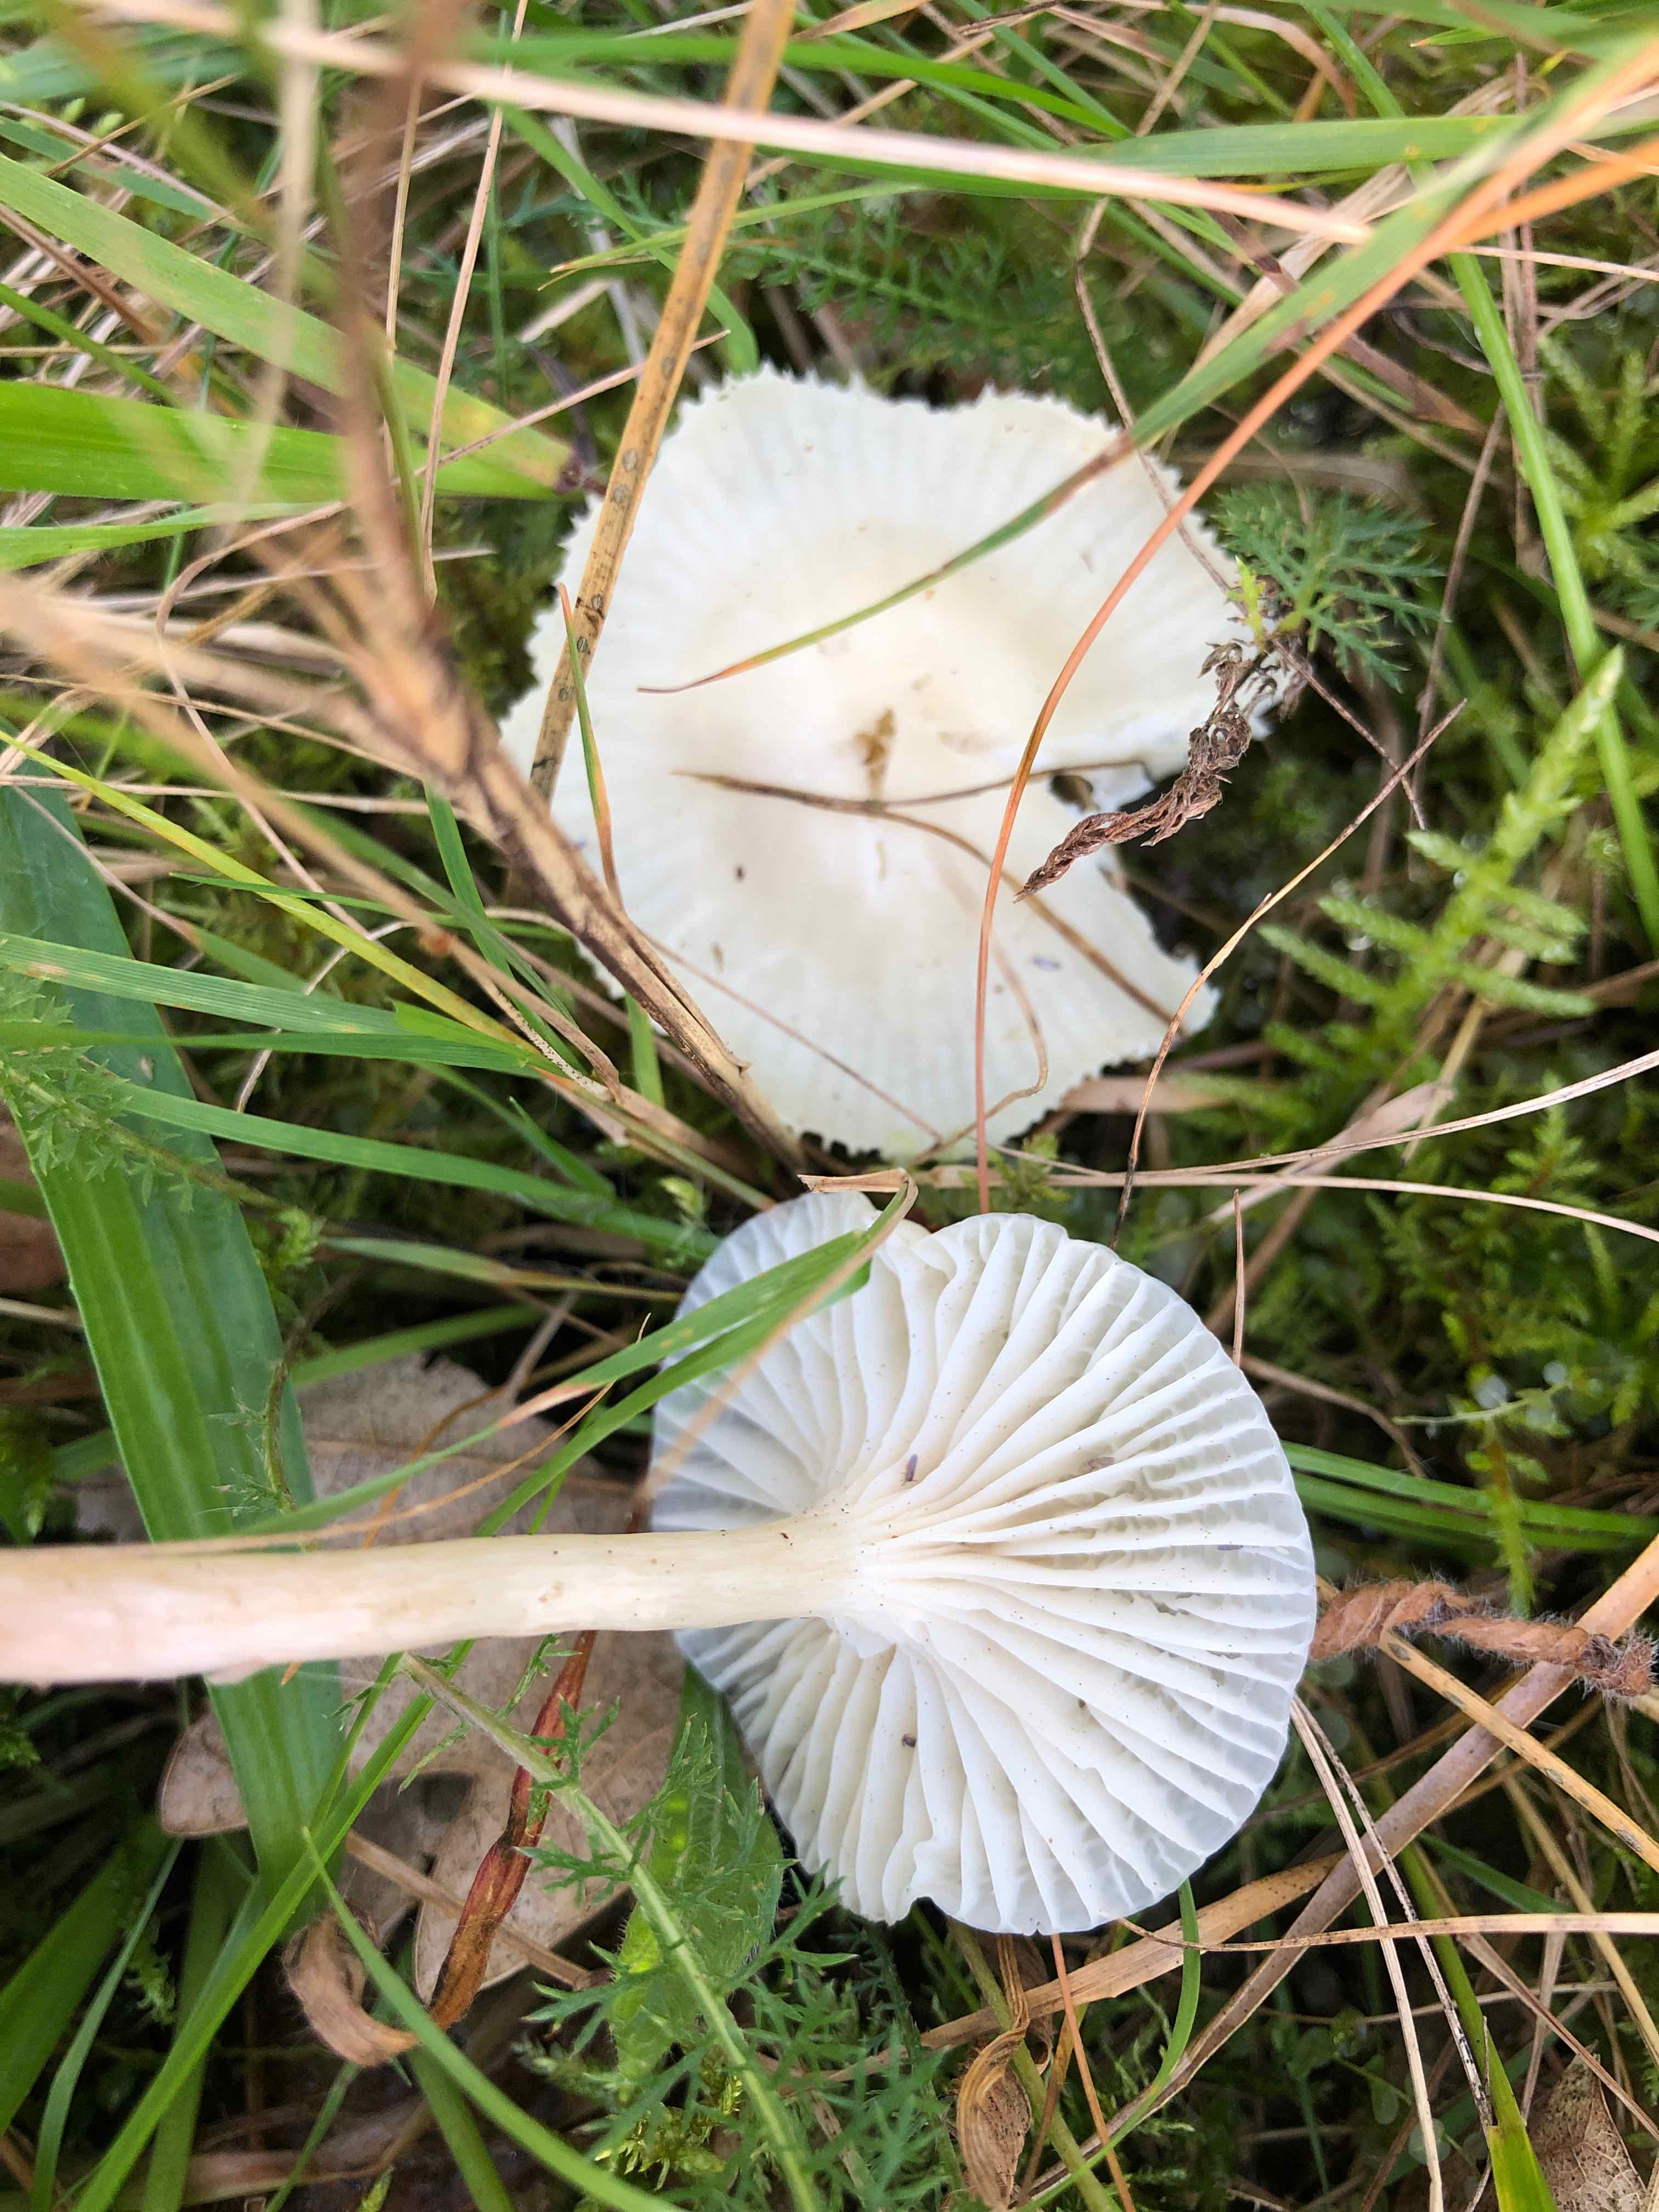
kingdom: Fungi
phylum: Basidiomycota
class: Agaricomycetes
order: Agaricales
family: Hygrophoraceae
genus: Cuphophyllus
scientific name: Cuphophyllus virgineus
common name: snehvid vokshat
